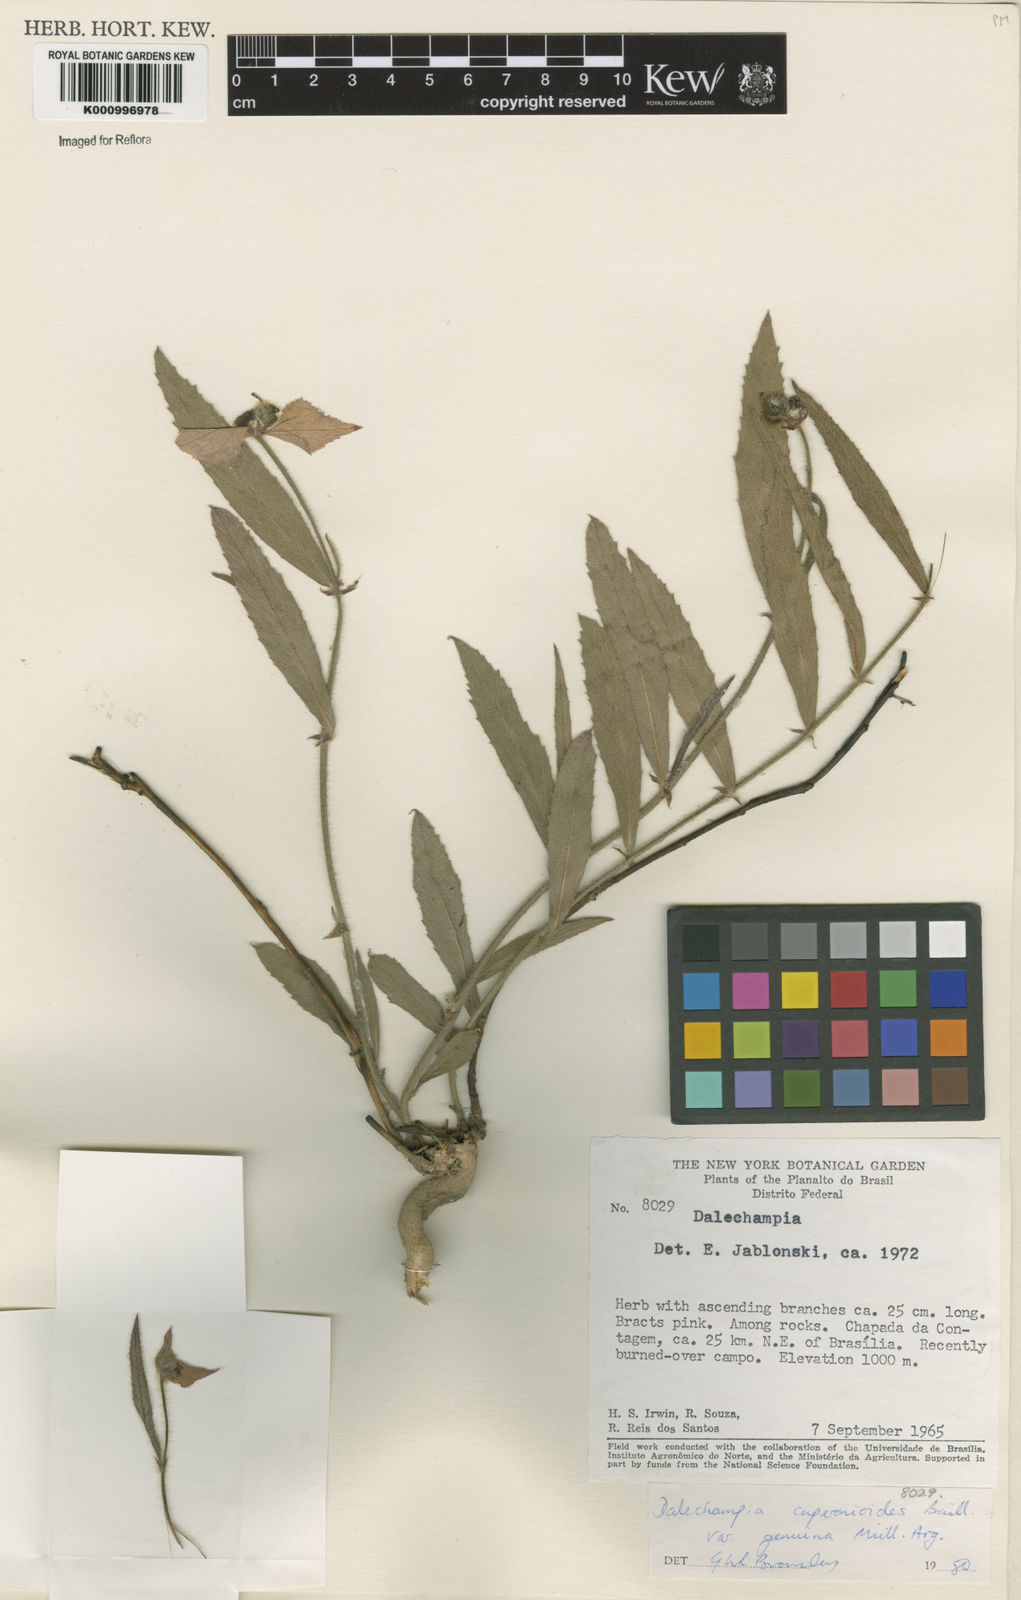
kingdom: Plantae
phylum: Tracheophyta
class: Magnoliopsida
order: Malpighiales
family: Euphorbiaceae
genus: Dalechampia
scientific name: Dalechampia caperonioides
